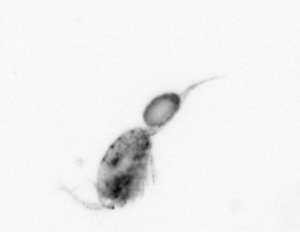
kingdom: Animalia
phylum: Arthropoda
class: Copepoda
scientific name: Copepoda
